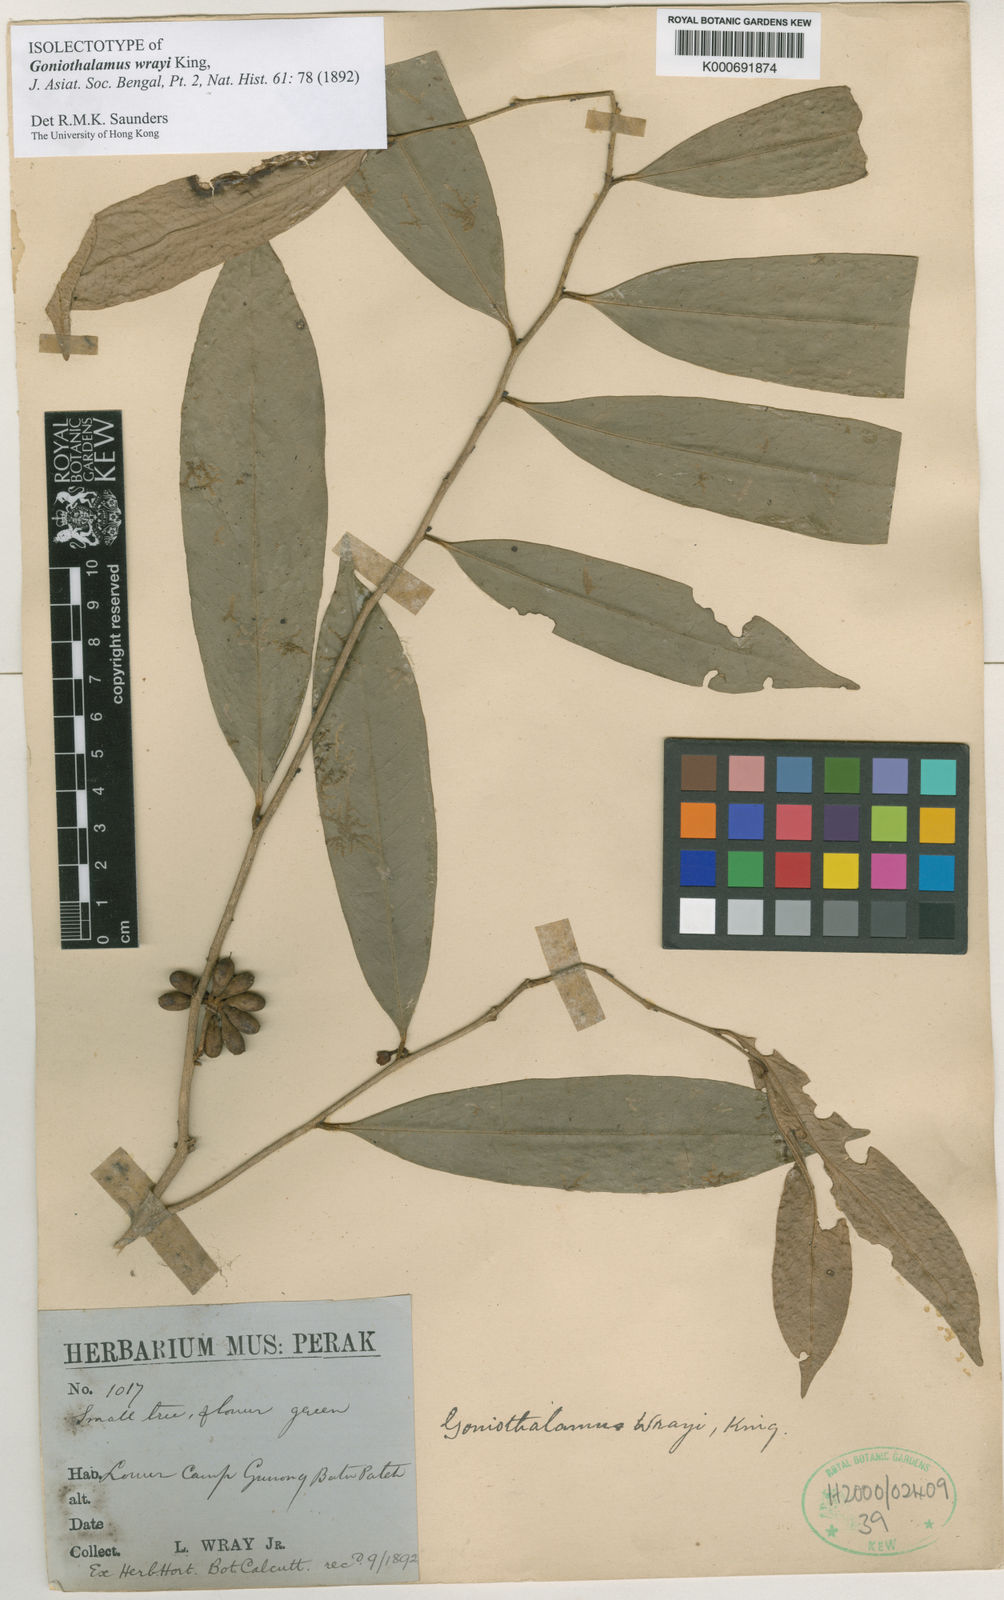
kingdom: Plantae
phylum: Tracheophyta
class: Magnoliopsida
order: Magnoliales
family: Annonaceae
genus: Goniothalamus
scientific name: Goniothalamus wrayi
